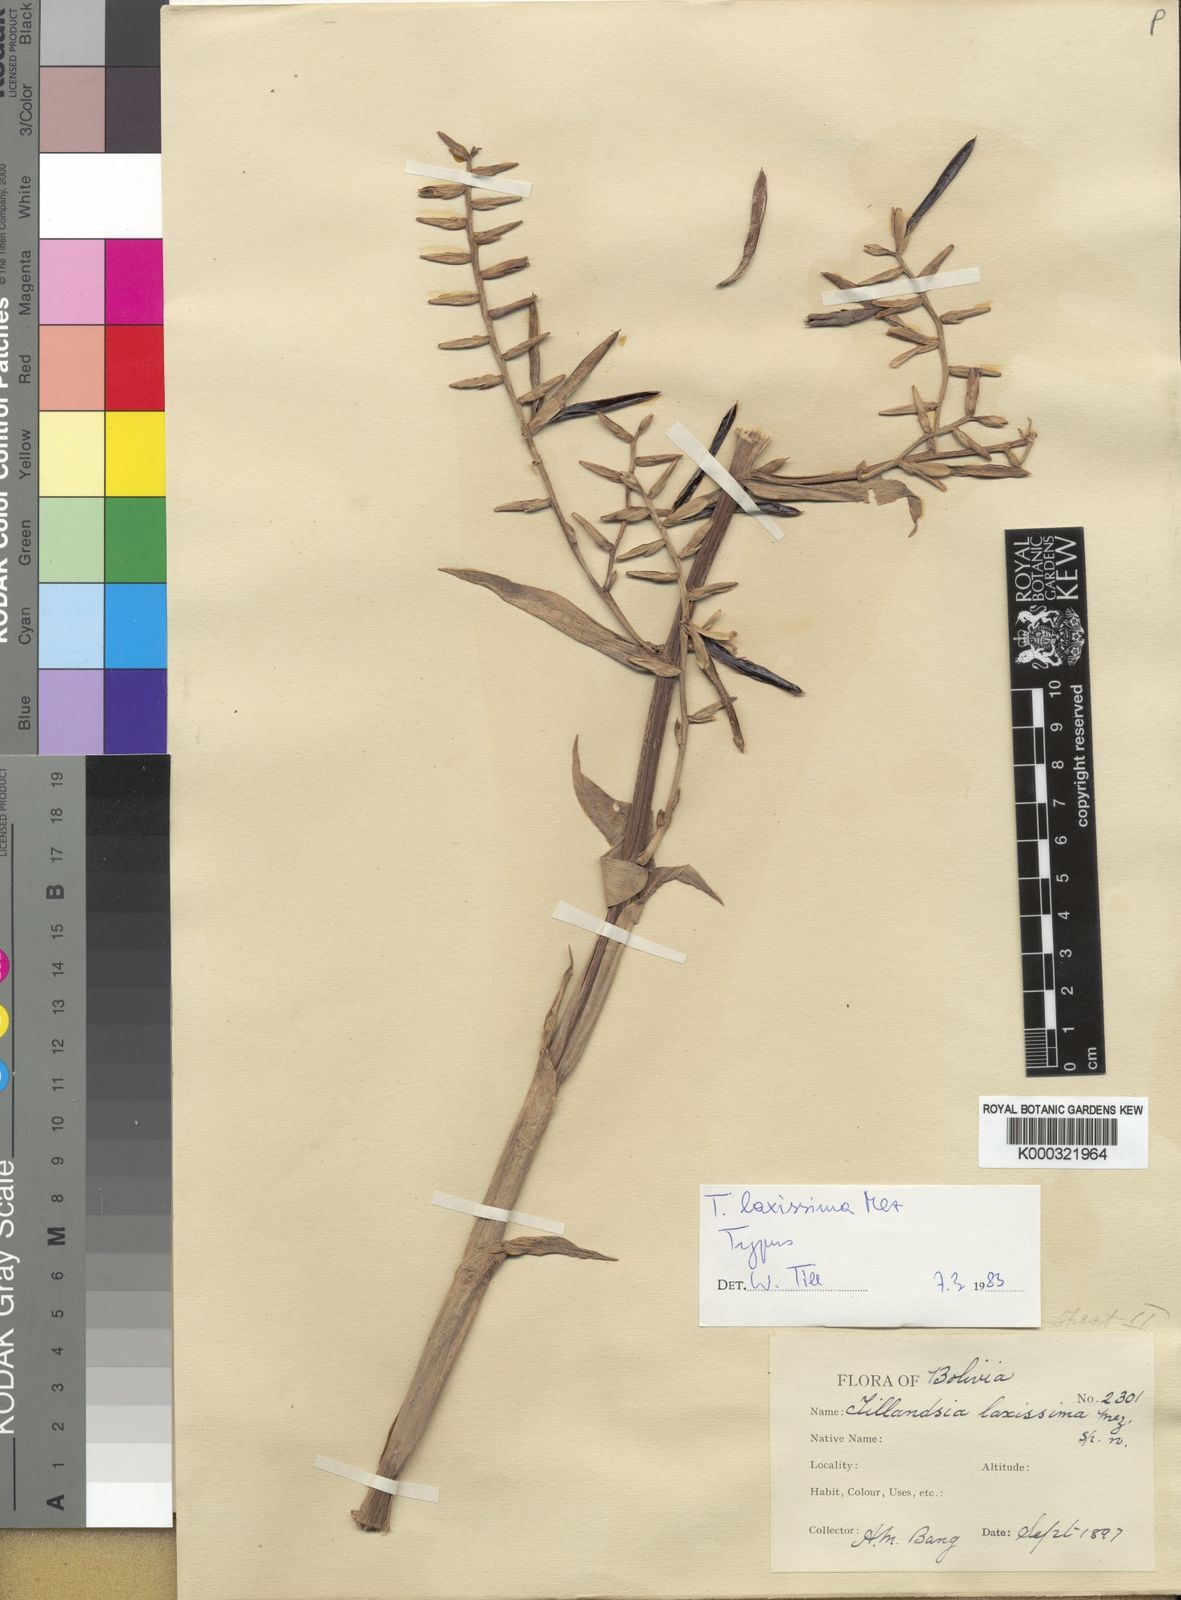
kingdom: Plantae
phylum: Tracheophyta
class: Liliopsida
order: Poales
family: Bromeliaceae
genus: Barfussia
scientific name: Barfussia laxissima
